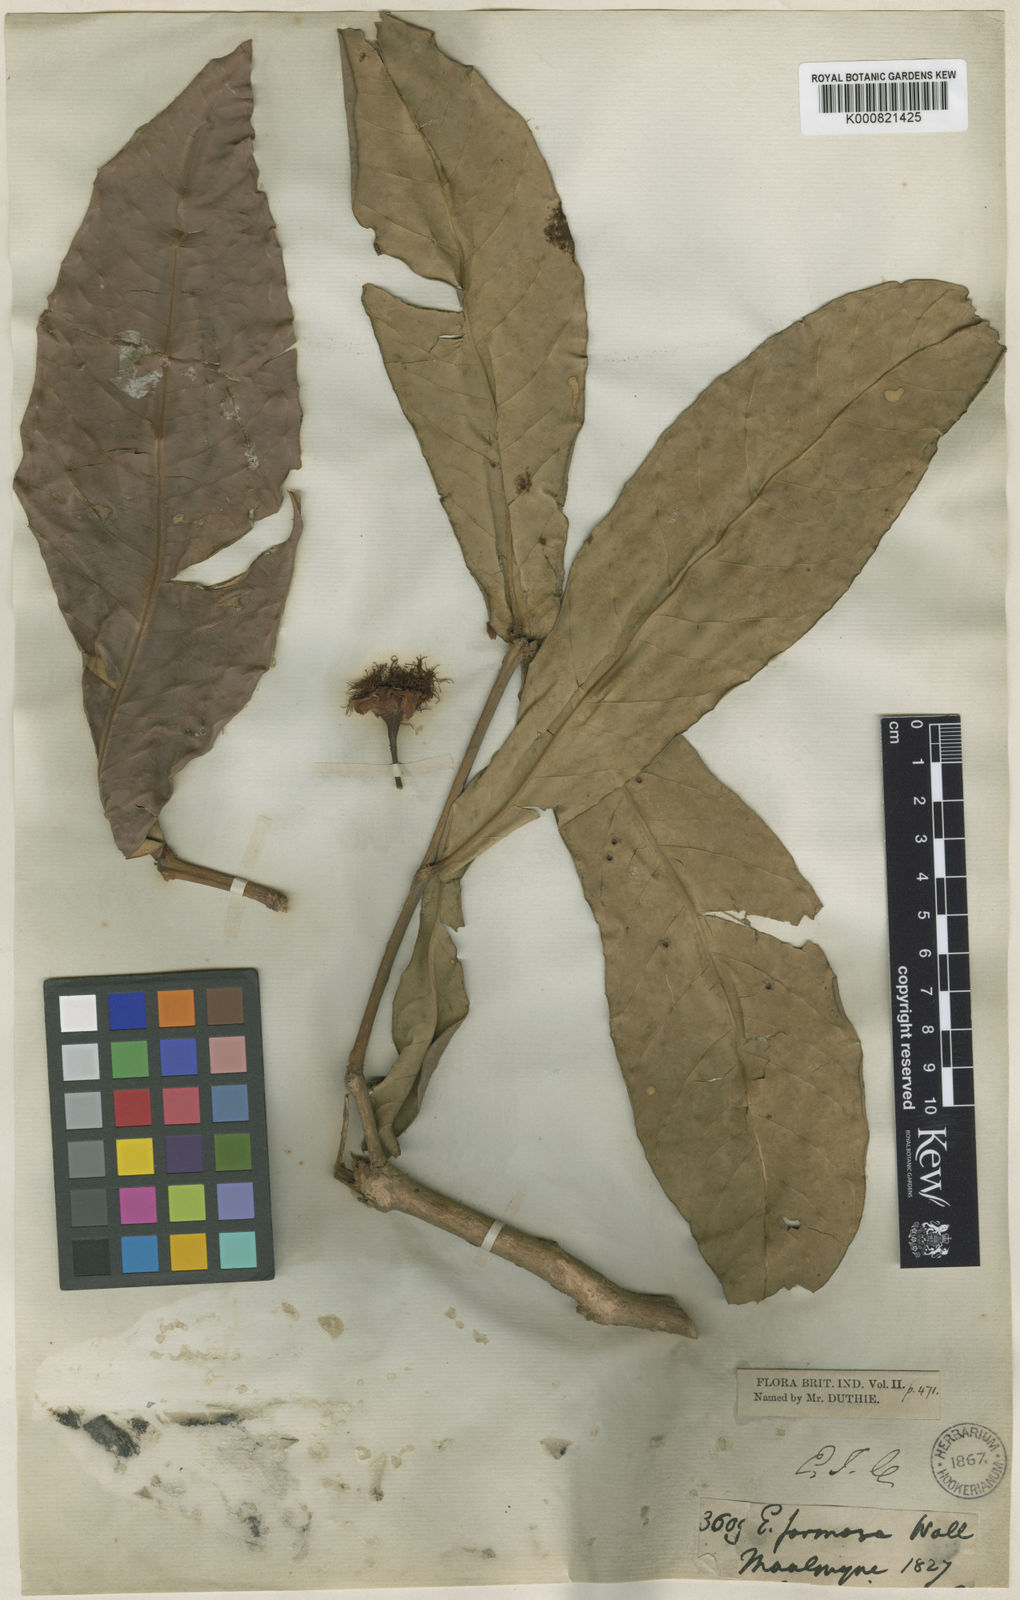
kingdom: Plantae
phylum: Tracheophyta
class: Magnoliopsida
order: Myrtales
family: Myrtaceae
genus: Syzygium
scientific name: Syzygium formosum
